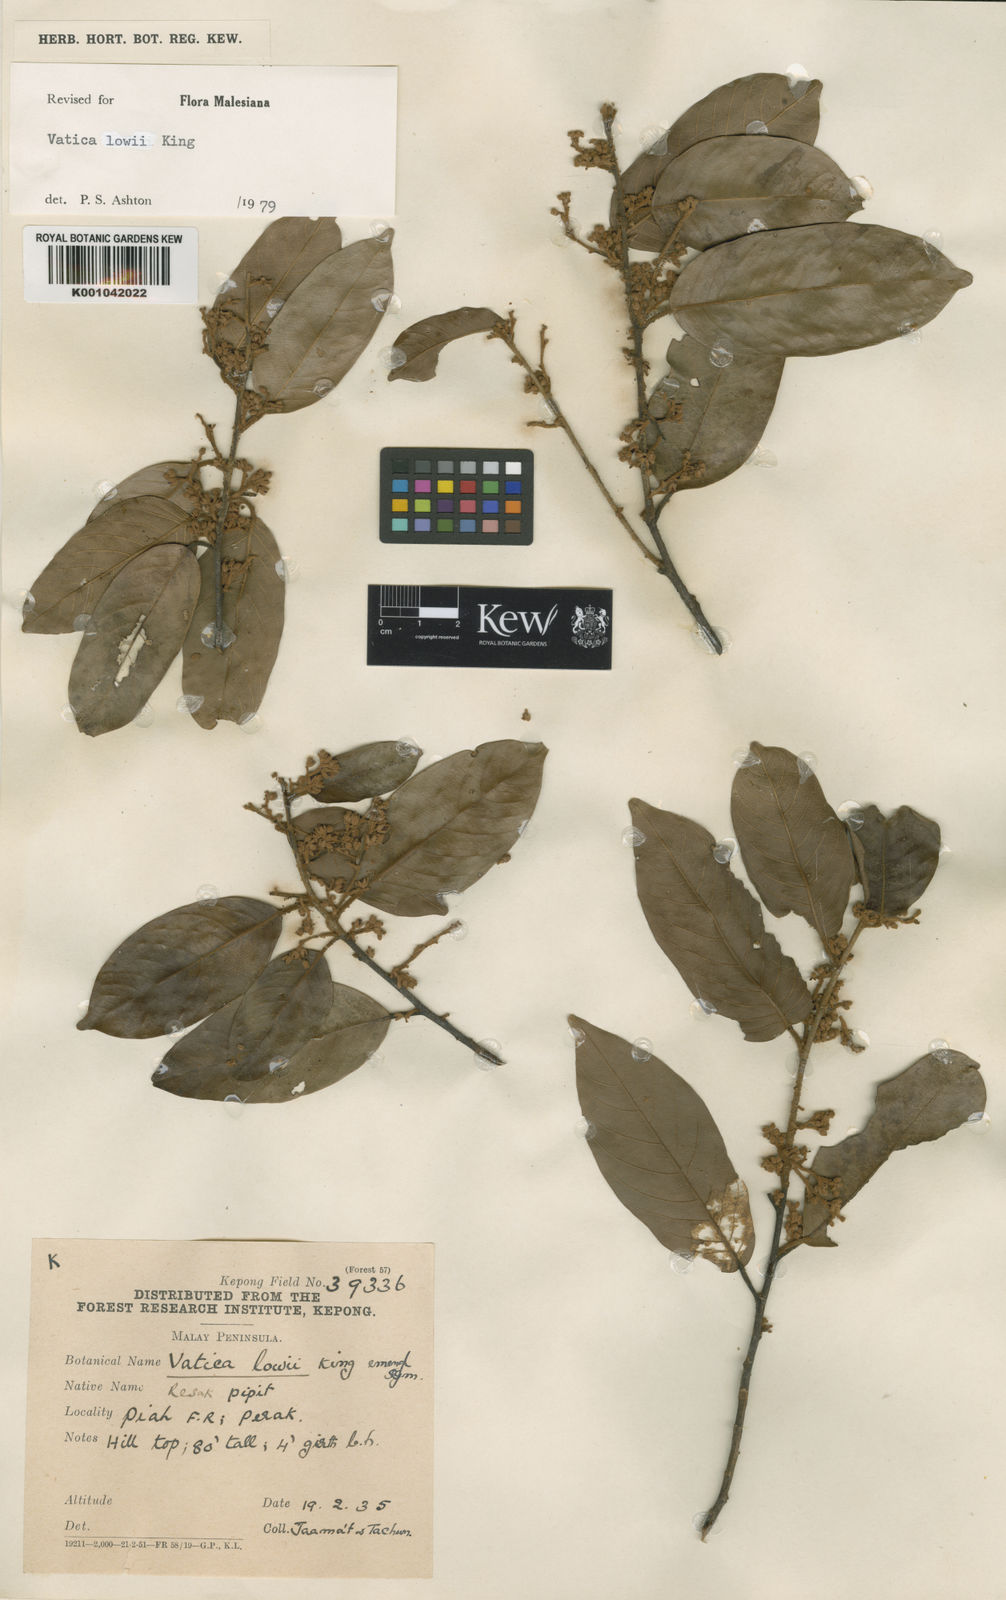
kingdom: Plantae
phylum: Tracheophyta
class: Magnoliopsida
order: Malvales
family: Dipterocarpaceae
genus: Vatica
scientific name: Vatica lowii
